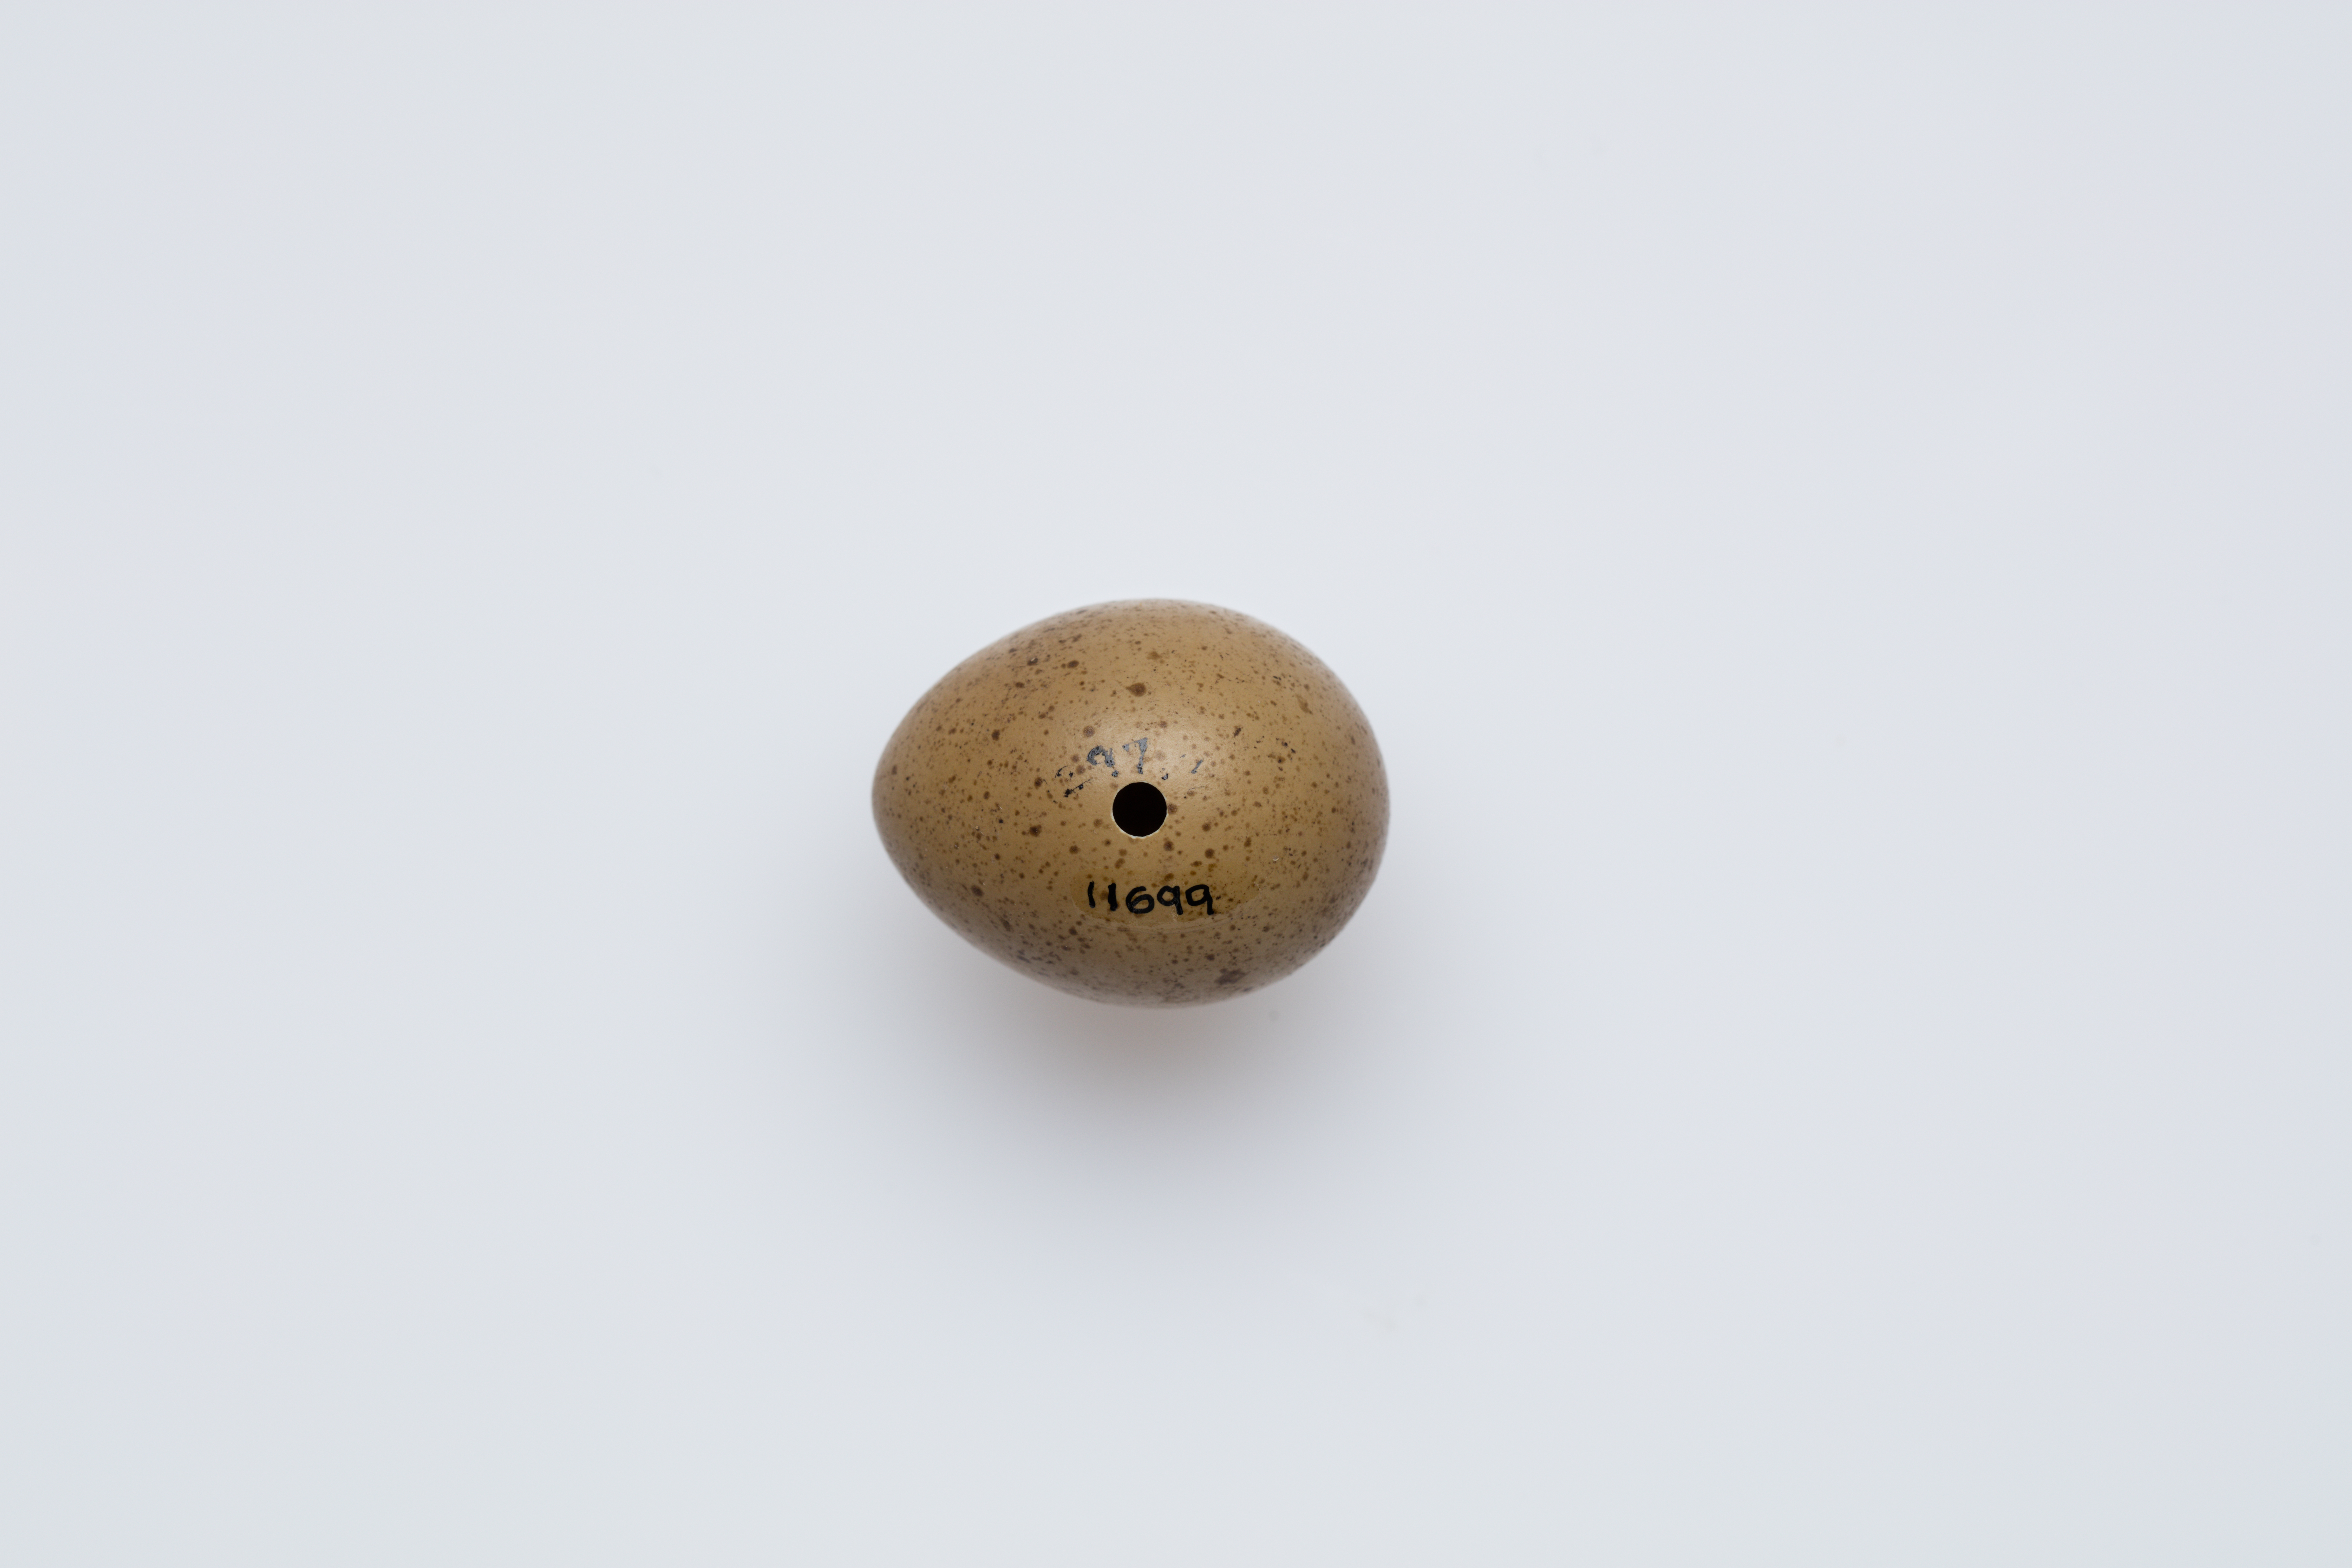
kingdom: Animalia
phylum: Chordata
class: Aves
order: Galliformes
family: Phasianidae
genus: Synoicus
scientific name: Synoicus chinensis
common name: Blue-breasted quail
